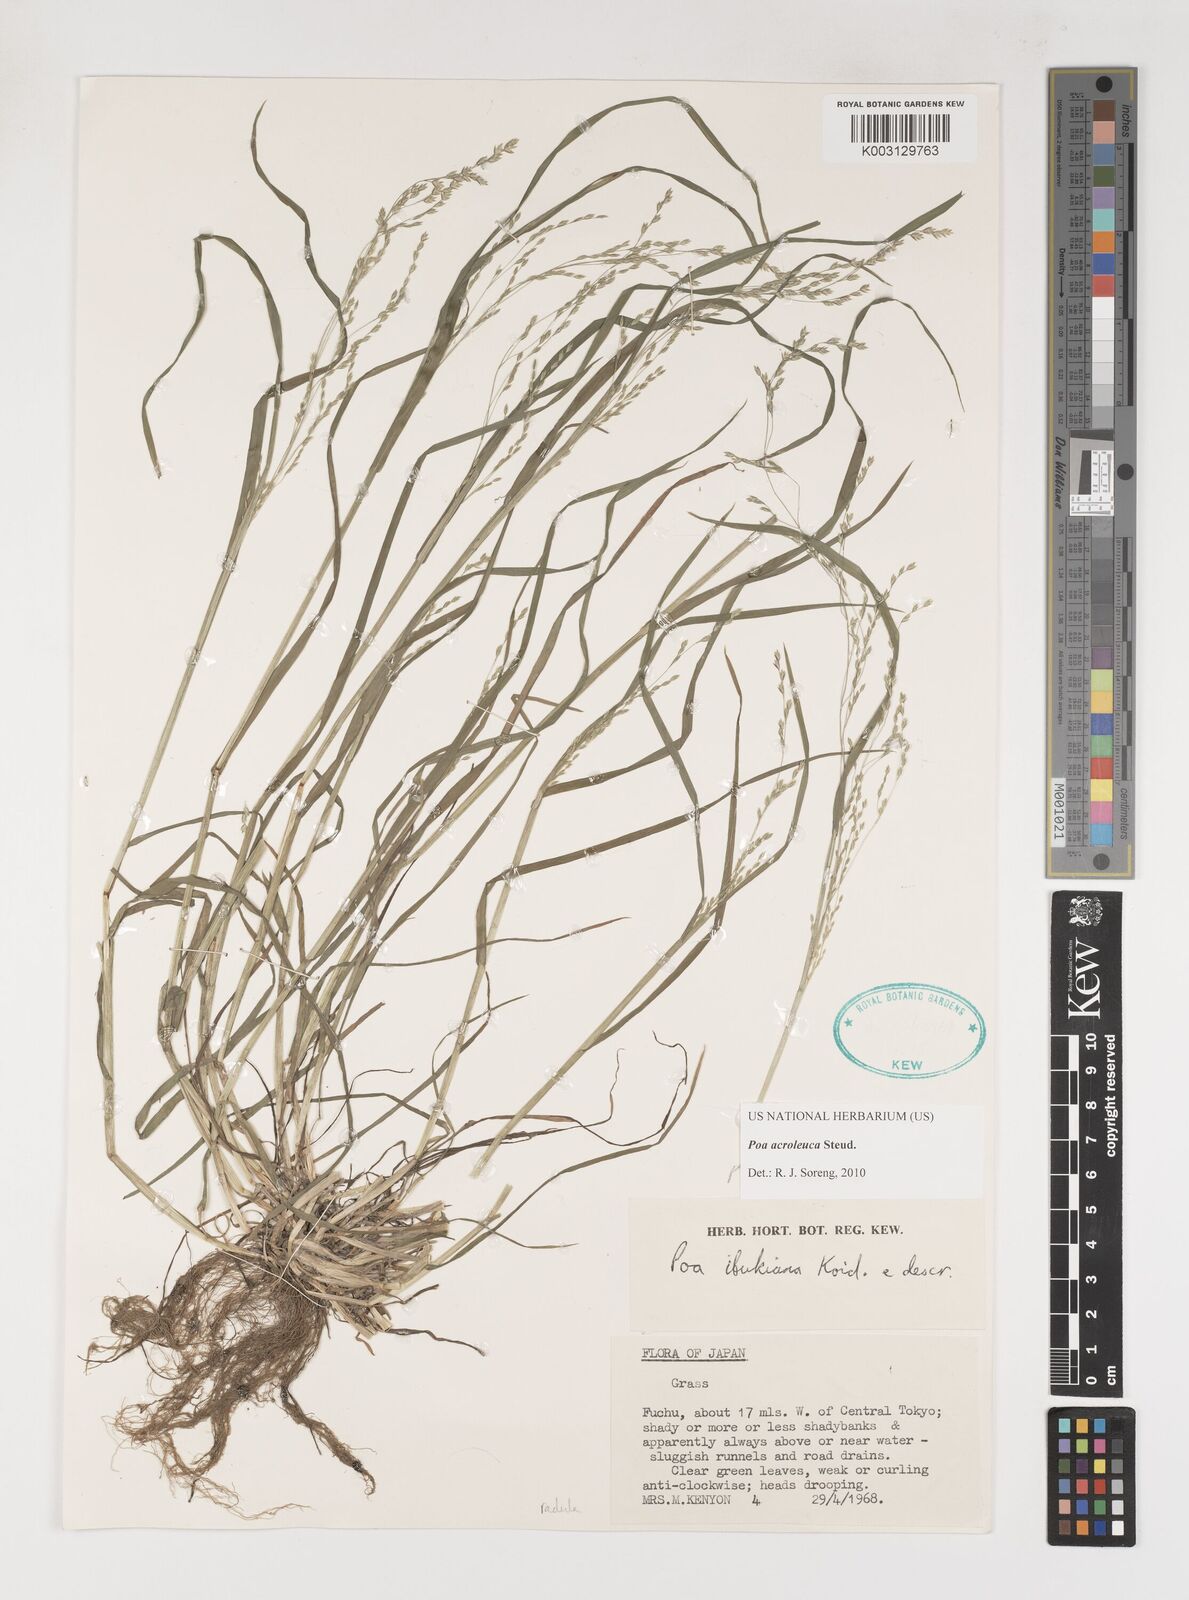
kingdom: Plantae
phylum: Tracheophyta
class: Liliopsida
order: Poales
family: Poaceae
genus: Poa
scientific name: Poa acroleuca
